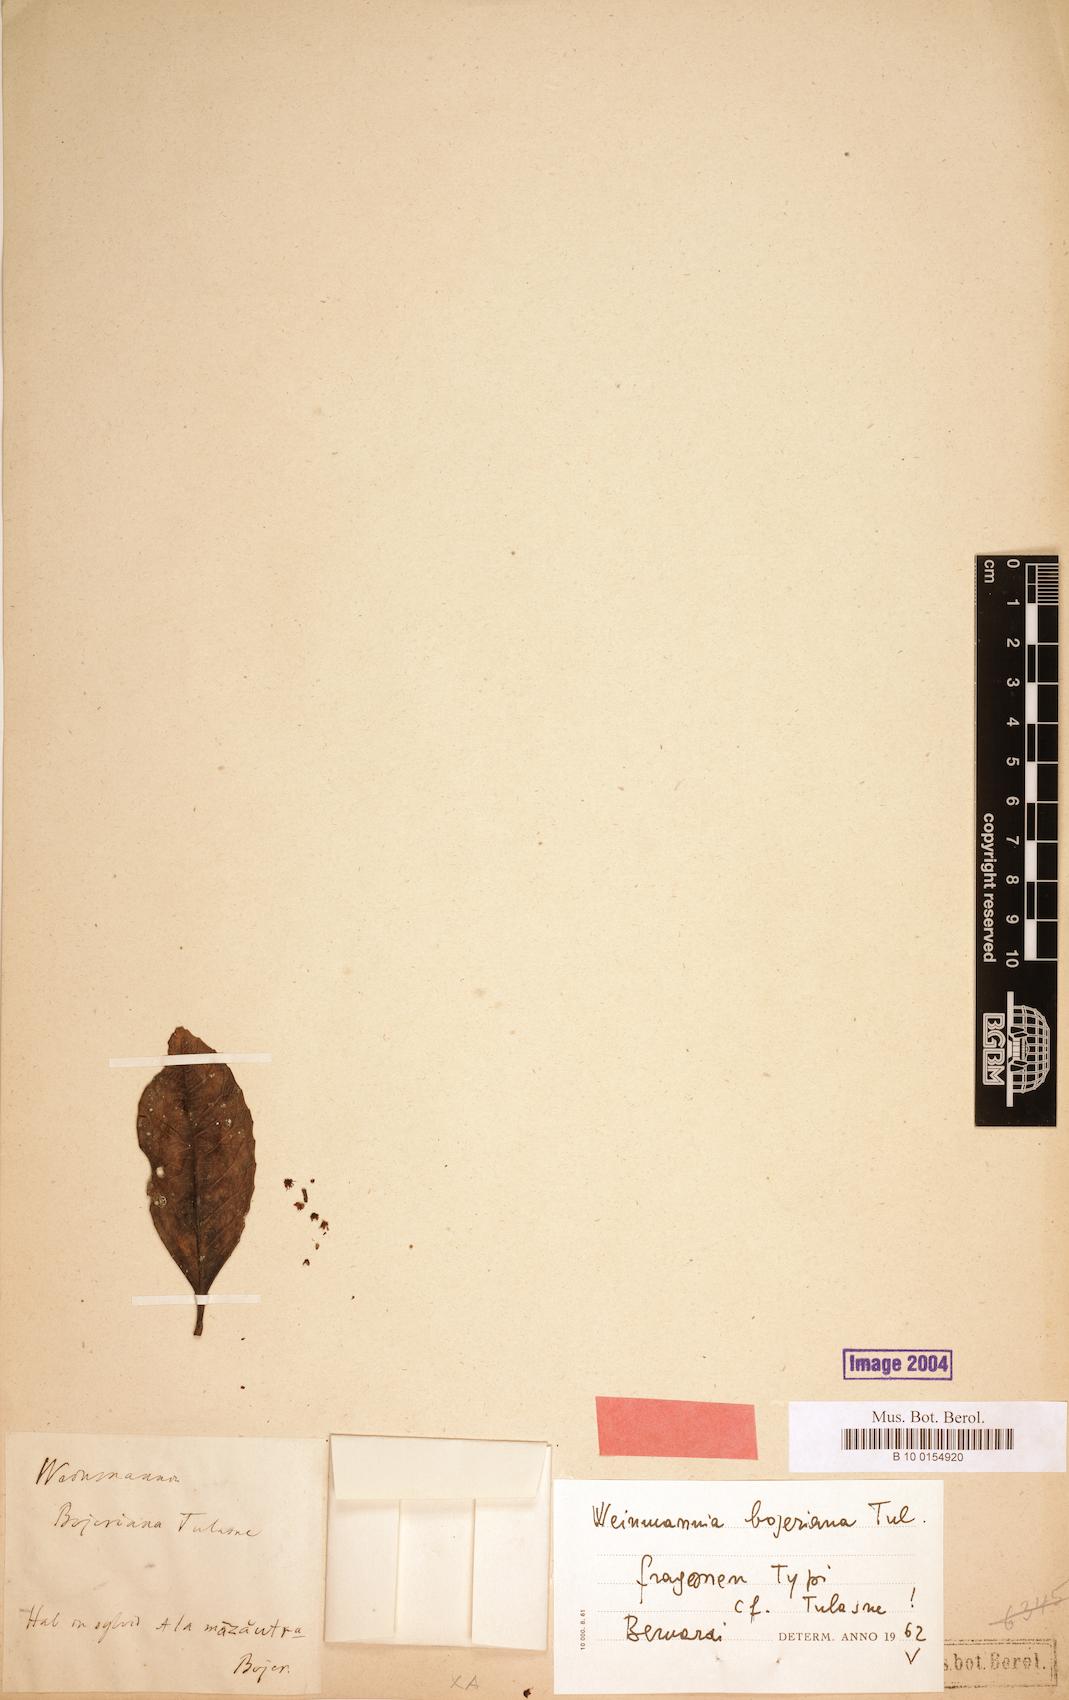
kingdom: Plantae
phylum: Tracheophyta
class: Magnoliopsida
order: Oxalidales
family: Cunoniaceae
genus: Pterophylla
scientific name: Pterophylla bojeriana
